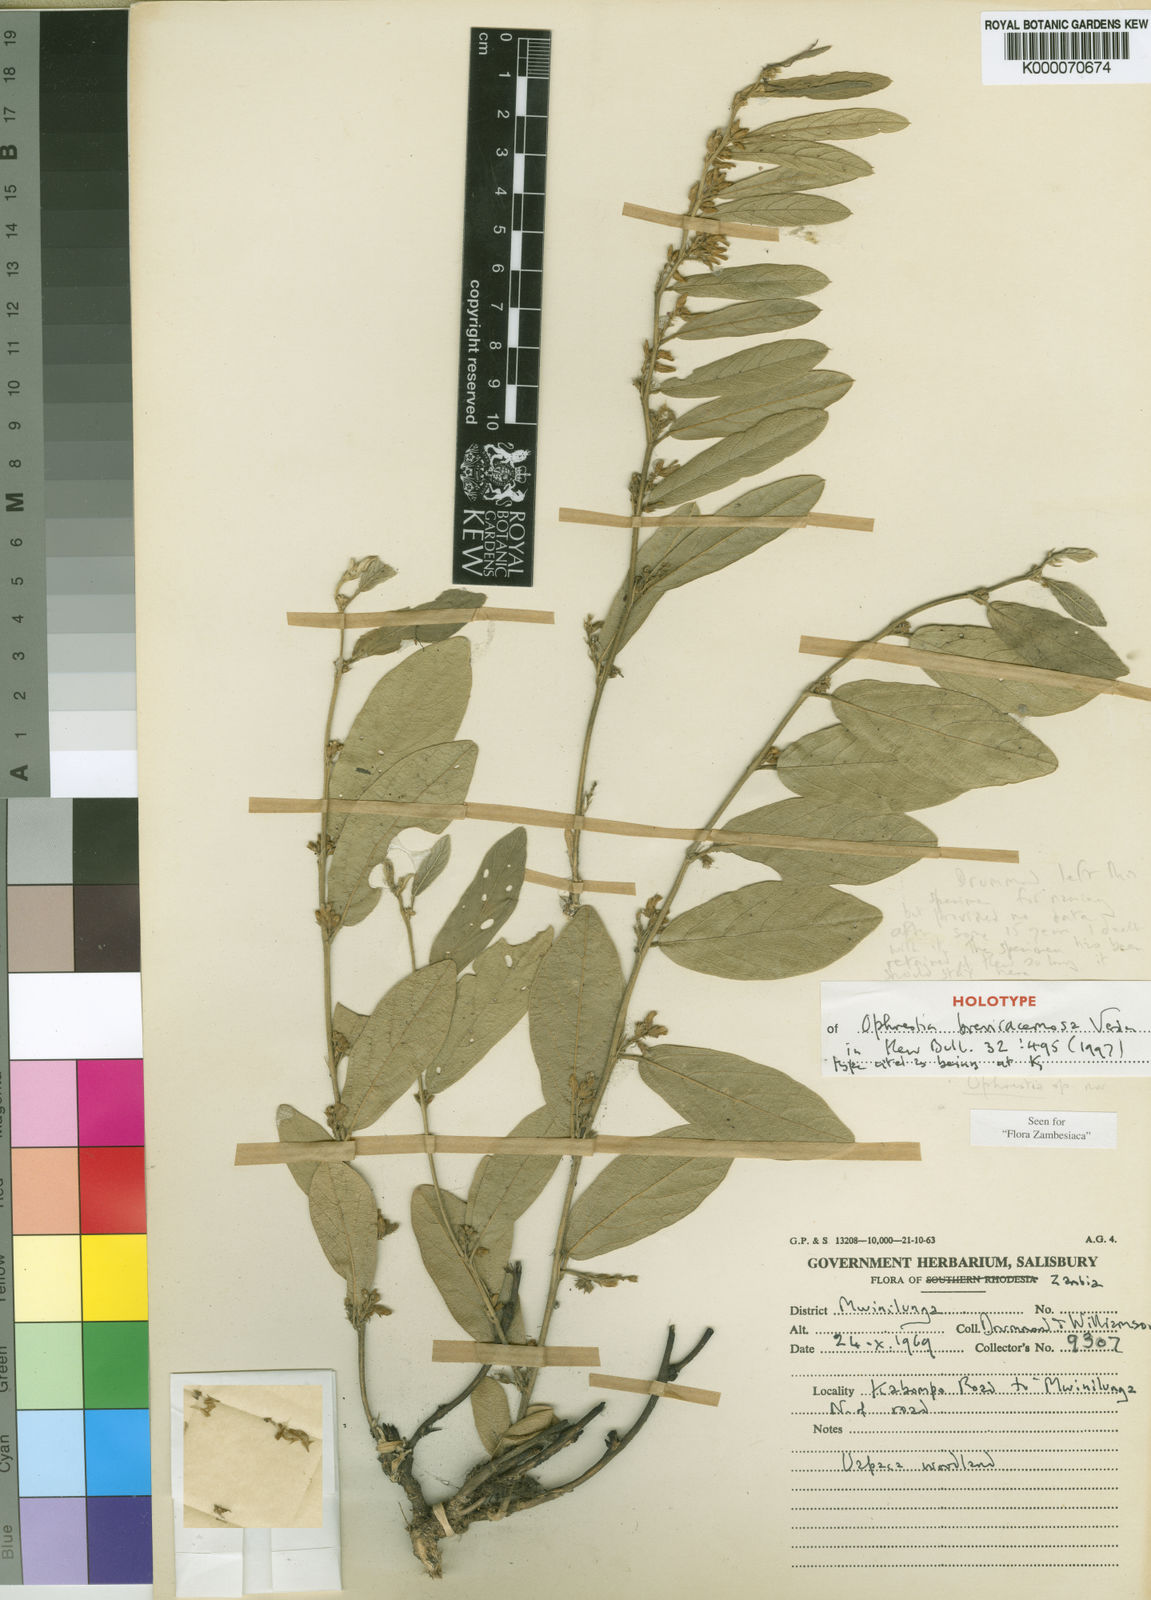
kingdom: Plantae
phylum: Tracheophyta
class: Magnoliopsida
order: Fabales
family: Fabaceae
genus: Ophrestia
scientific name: Ophrestia breviracemosa
